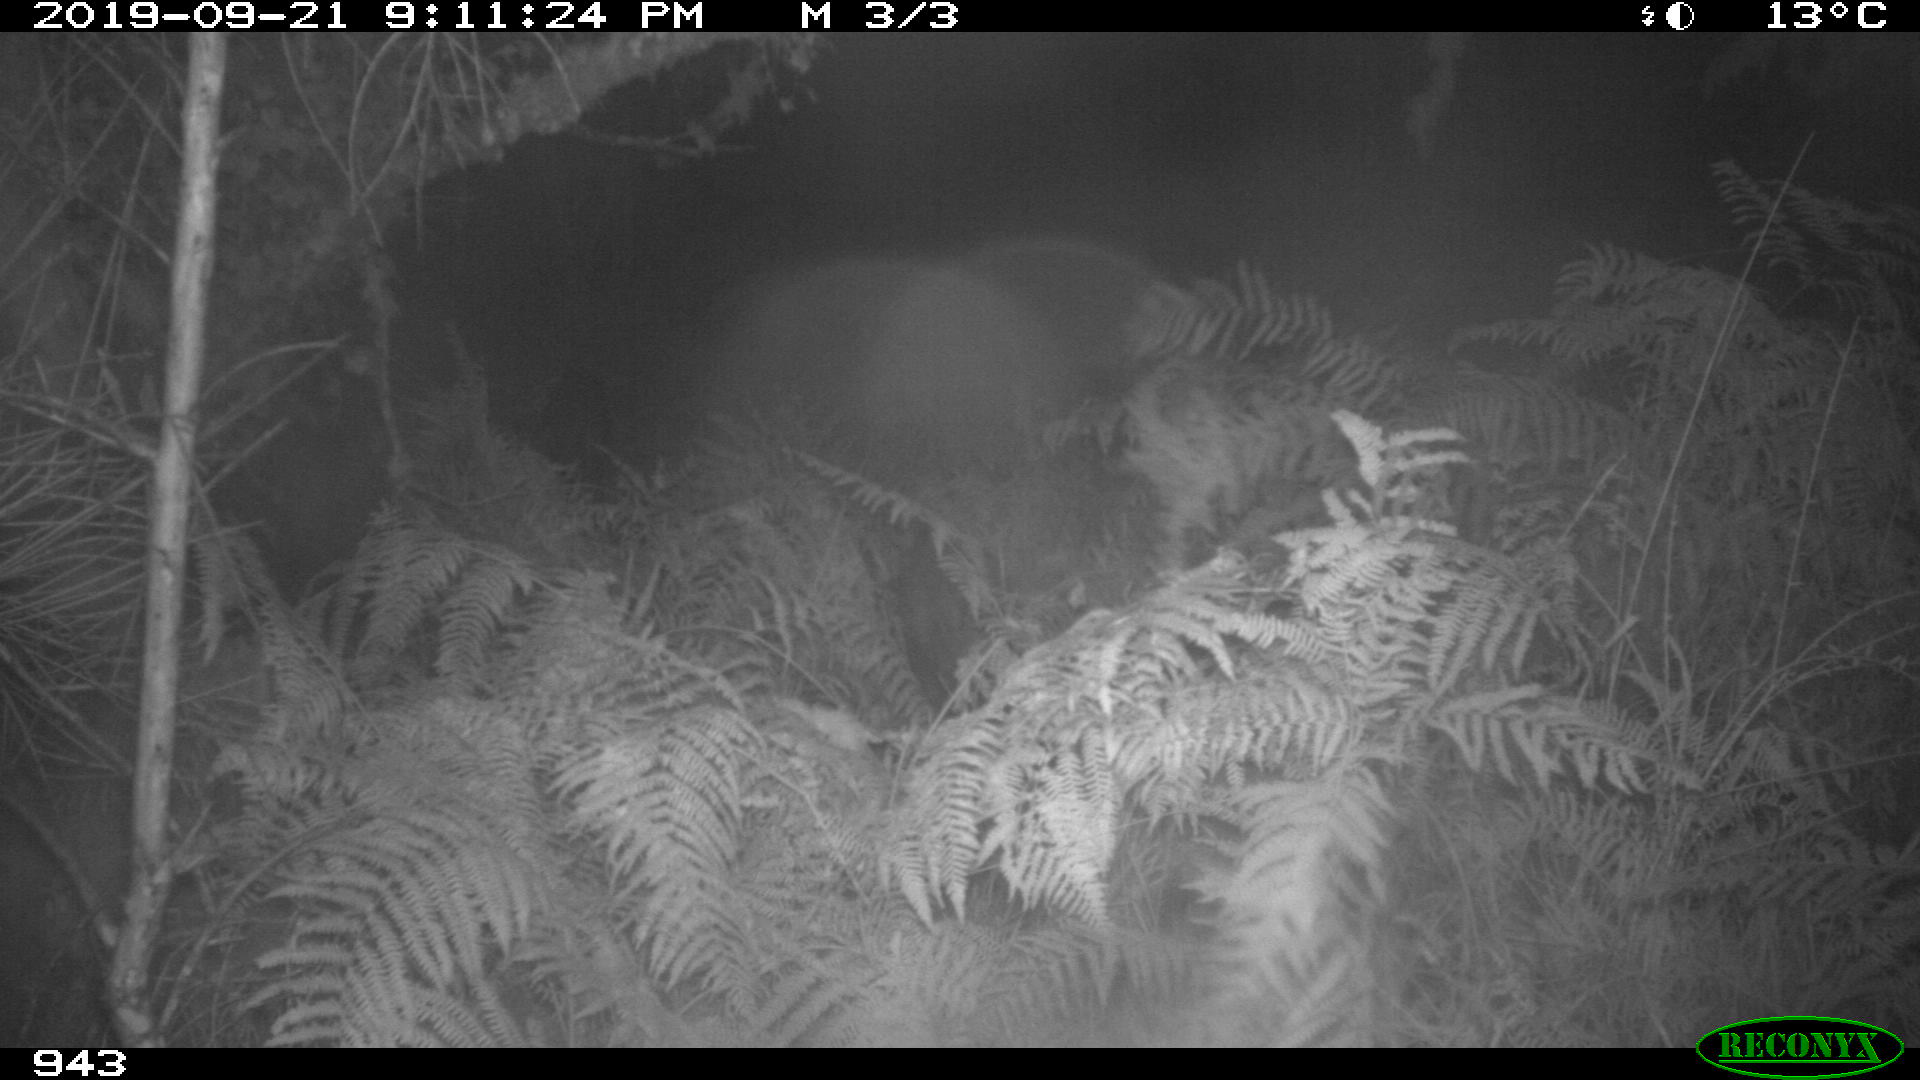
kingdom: Animalia
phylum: Chordata
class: Mammalia
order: Artiodactyla
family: Suidae
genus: Sus
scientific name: Sus scrofa
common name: Wild boar
